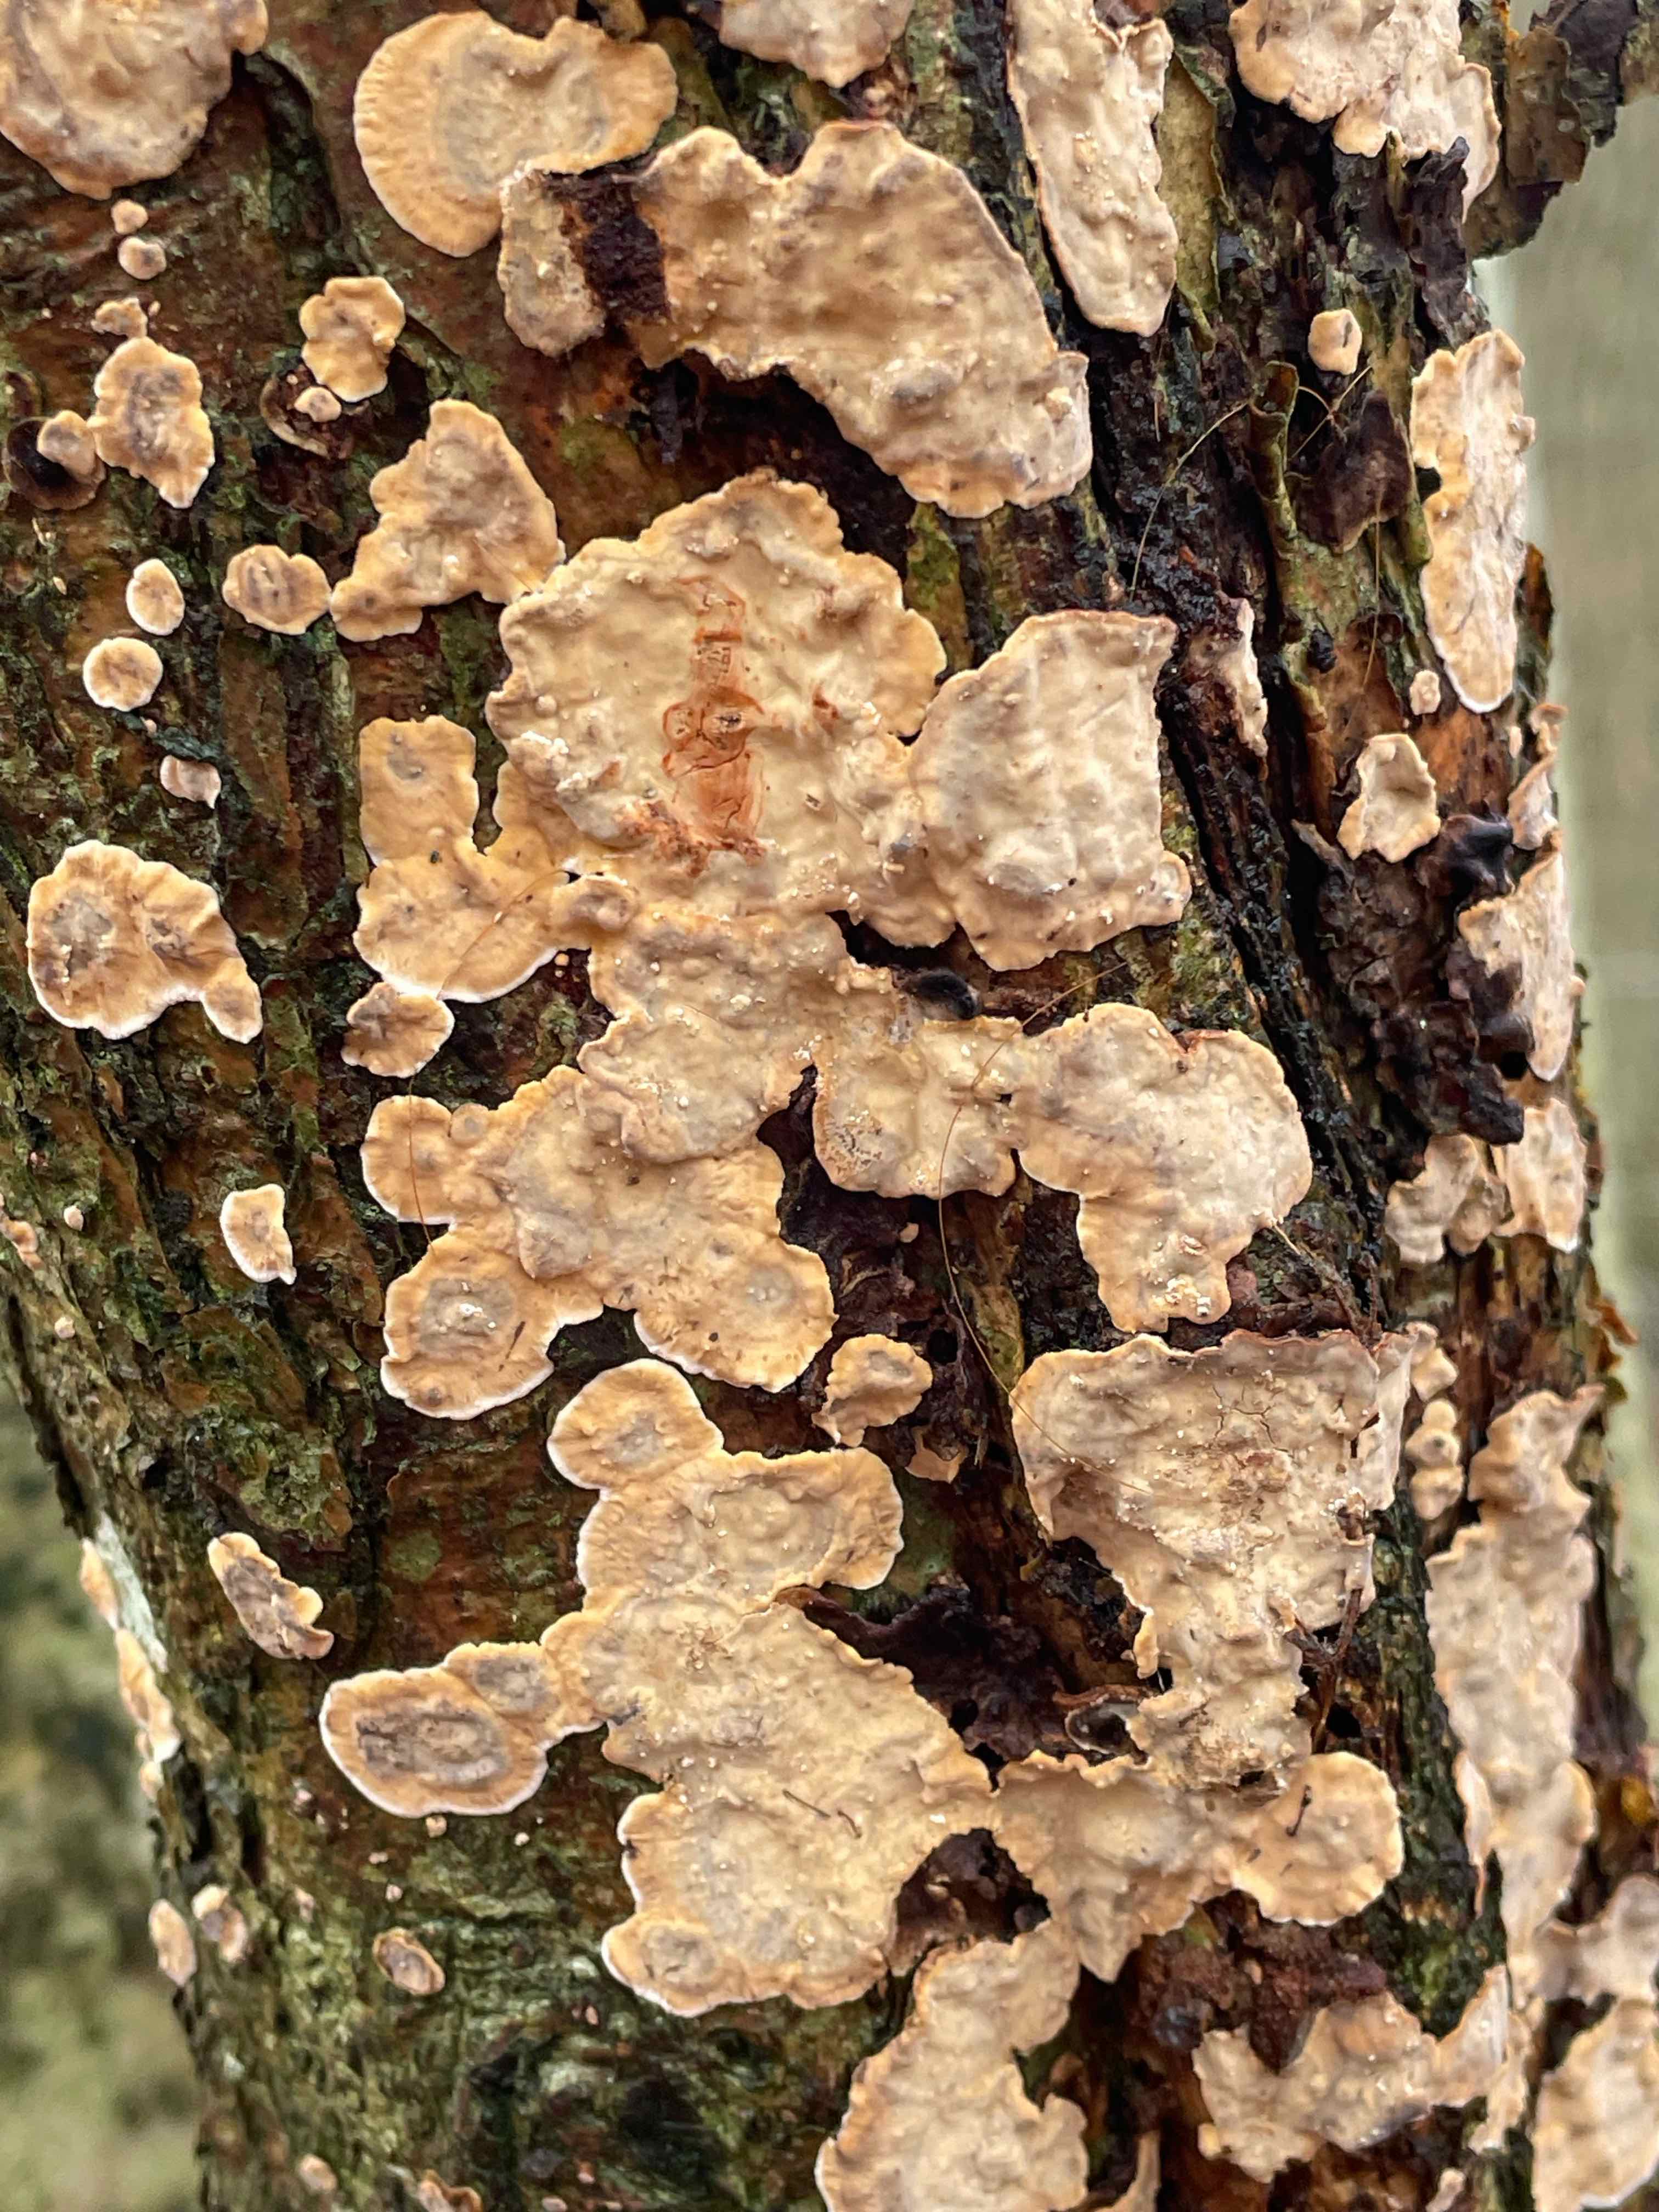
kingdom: Fungi
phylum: Basidiomycota
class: Agaricomycetes
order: Russulales
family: Stereaceae
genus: Stereum
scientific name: Stereum rugosum
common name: rynket lædersvamp
